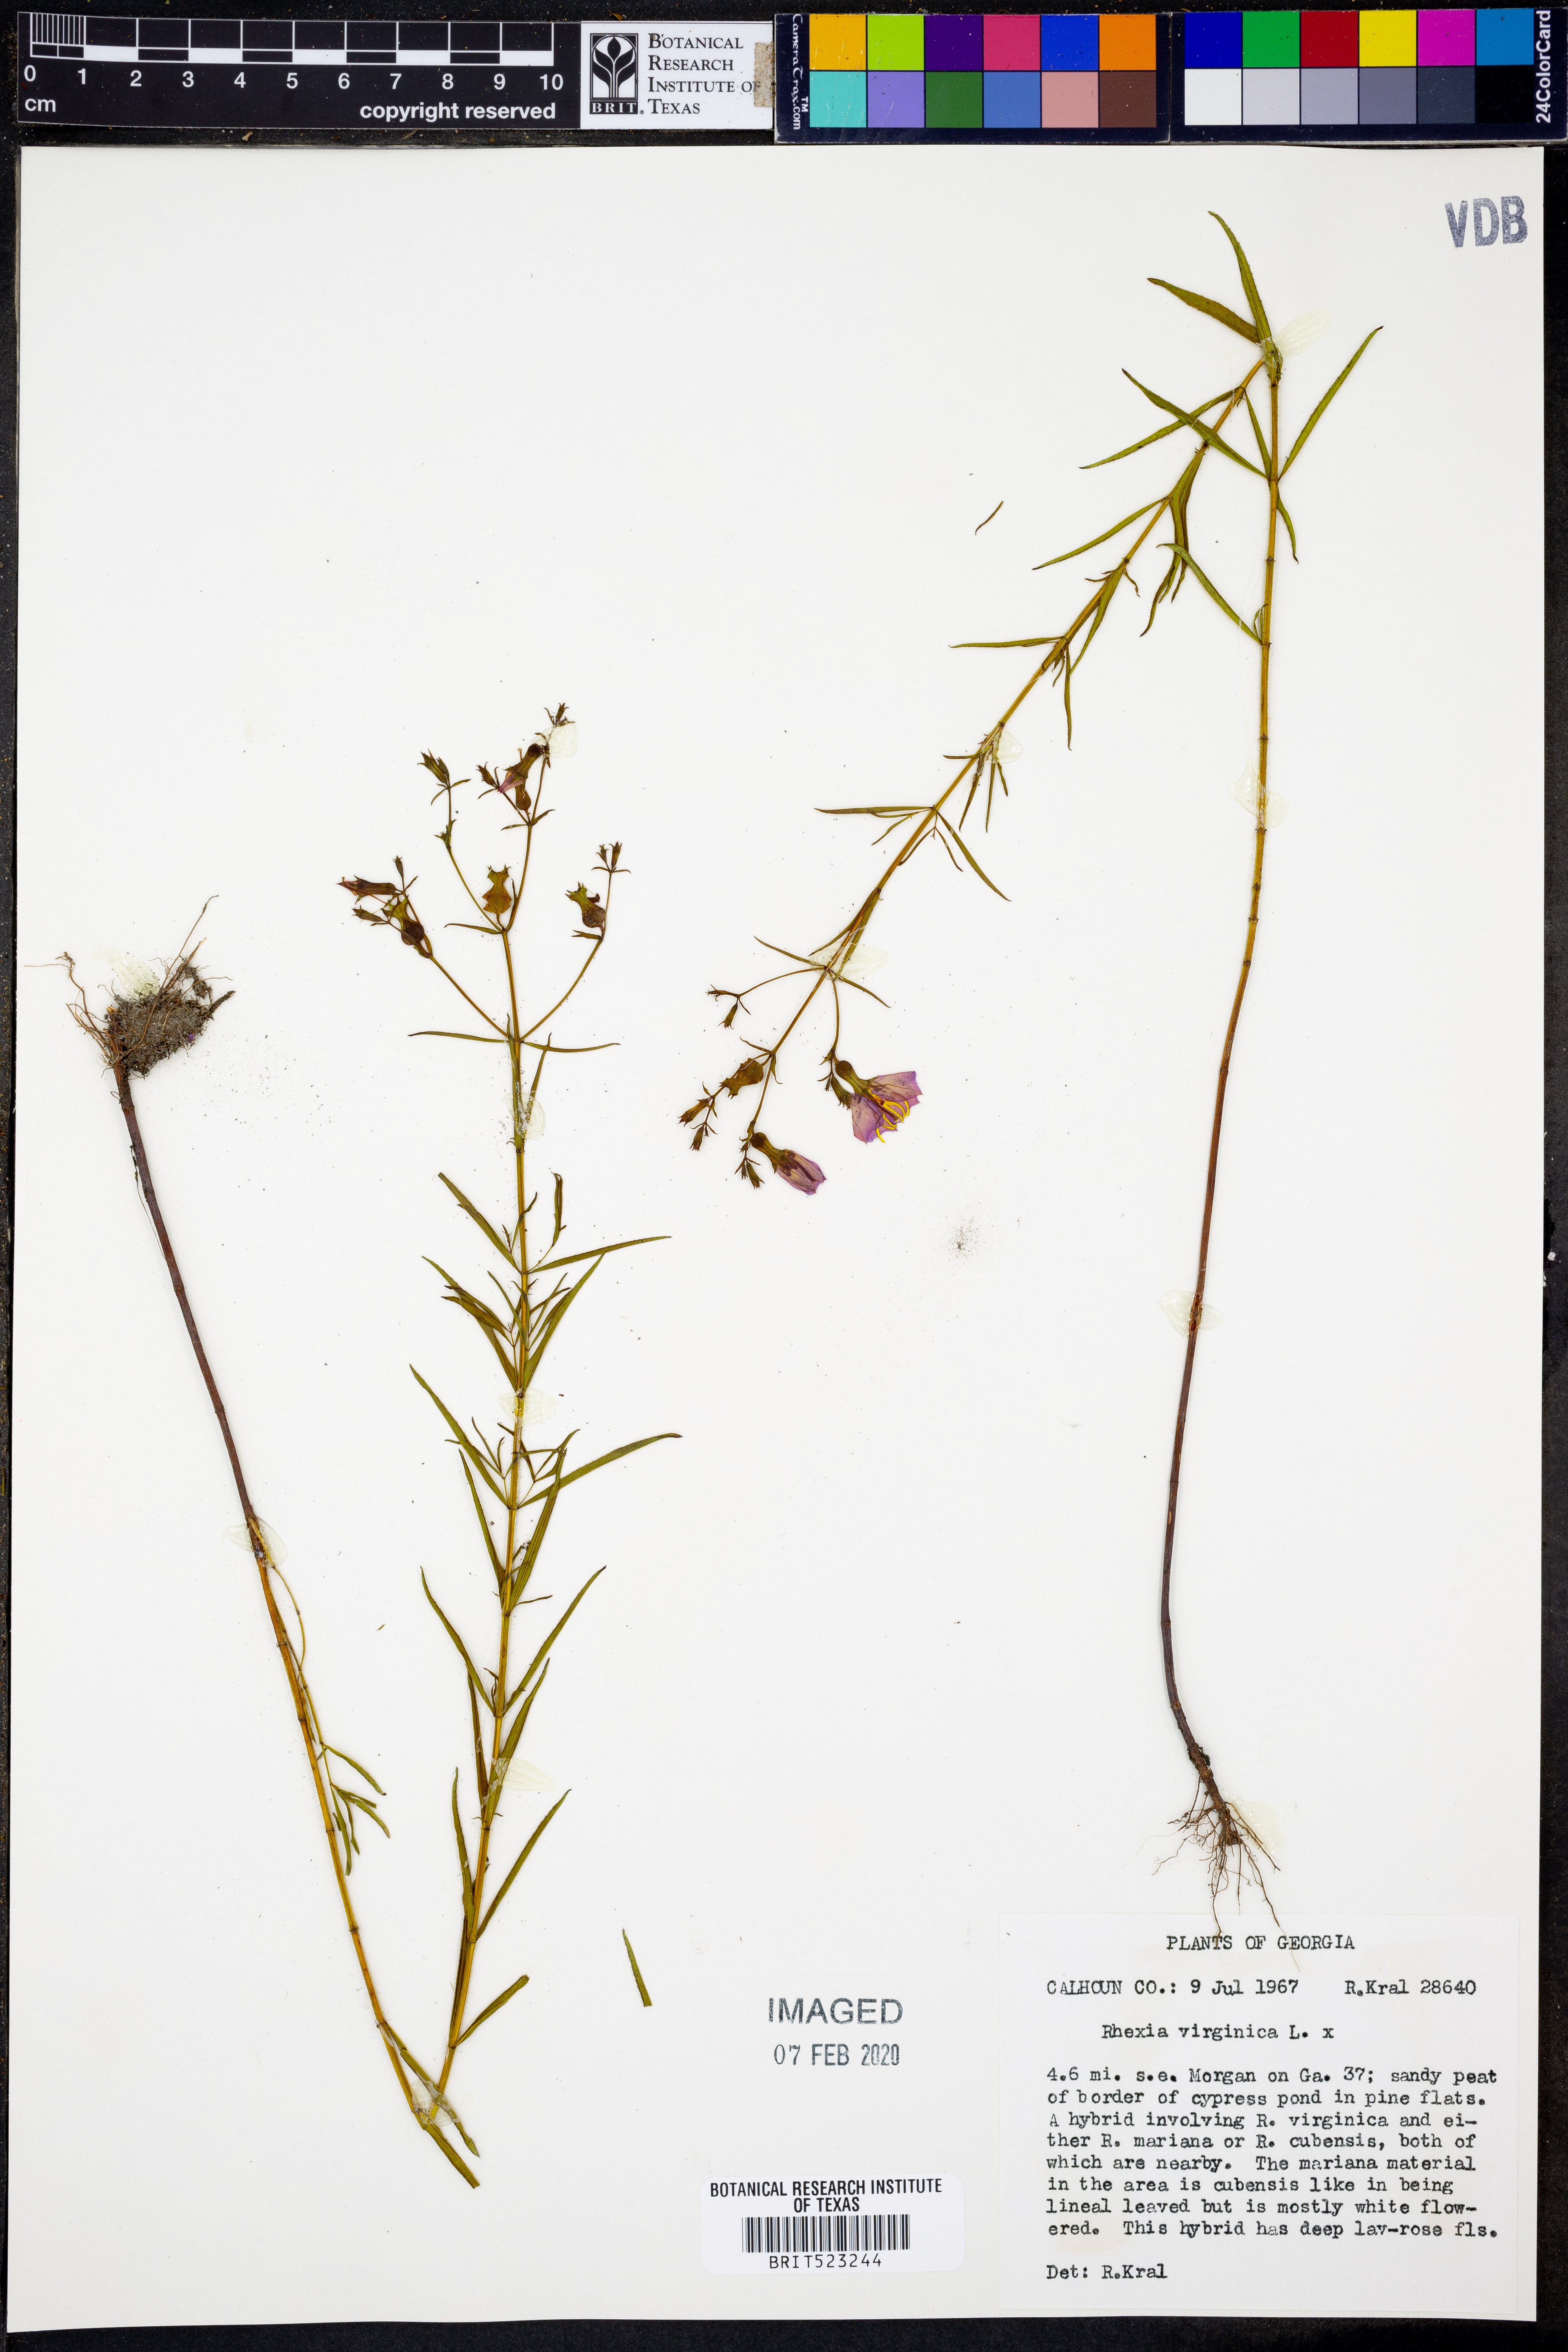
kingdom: Plantae
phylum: Tracheophyta
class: Magnoliopsida
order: Myrtales
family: Melastomataceae
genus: Rhexia
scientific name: Rhexia virginica
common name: Common meadow beauty
